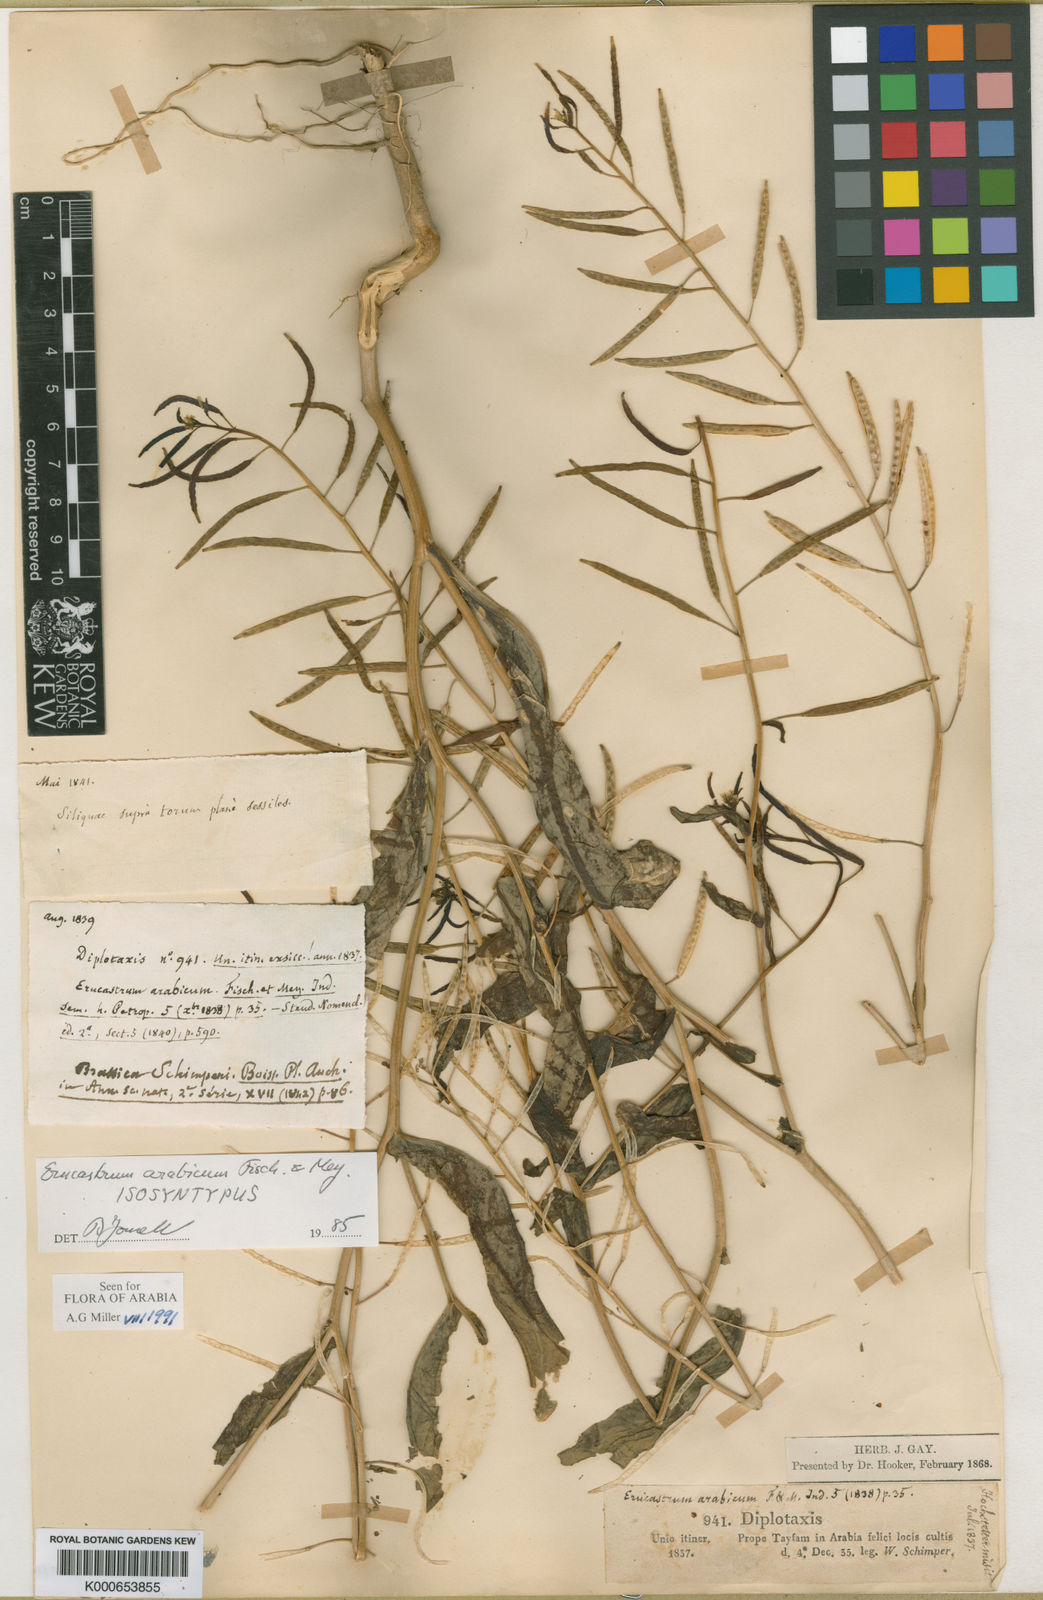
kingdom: Plantae
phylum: Tracheophyta
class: Magnoliopsida
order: Brassicales
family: Brassicaceae
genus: Erucastrum
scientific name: Erucastrum arabicum
